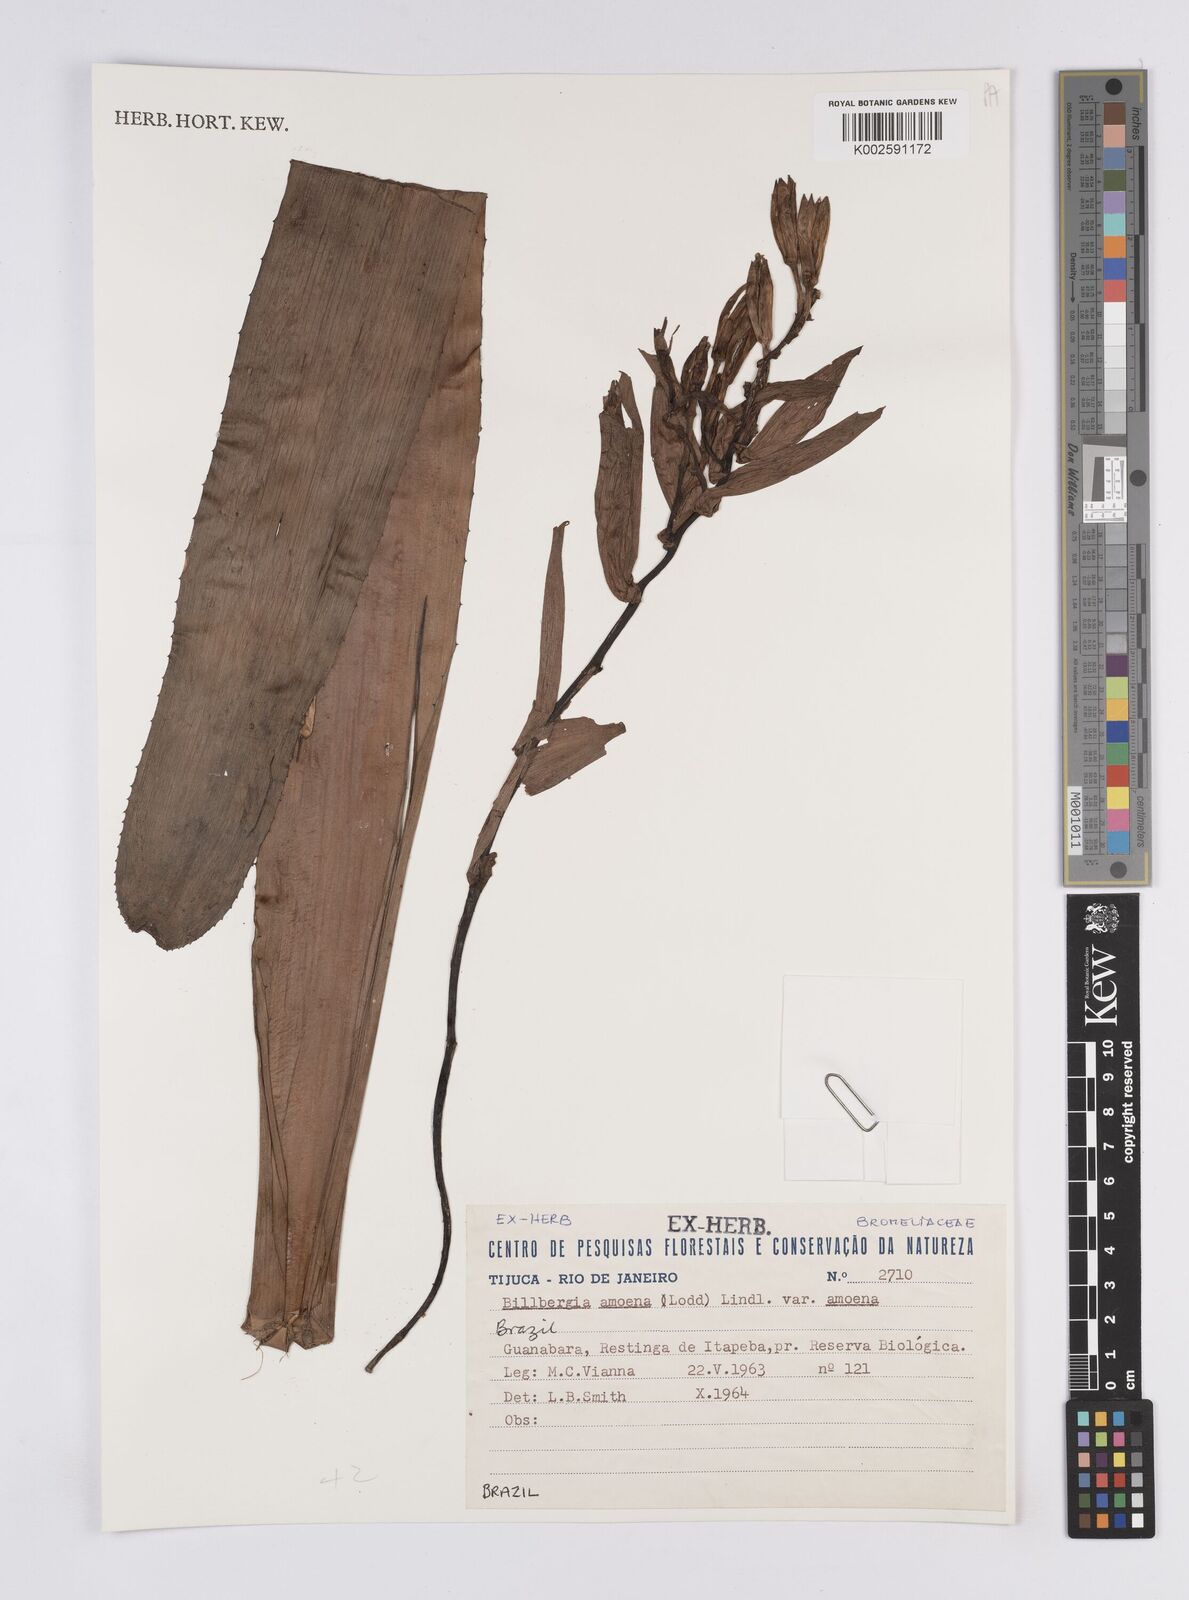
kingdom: Plantae
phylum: Tracheophyta
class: Liliopsida
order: Poales
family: Bromeliaceae
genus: Billbergia
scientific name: Billbergia amoena
